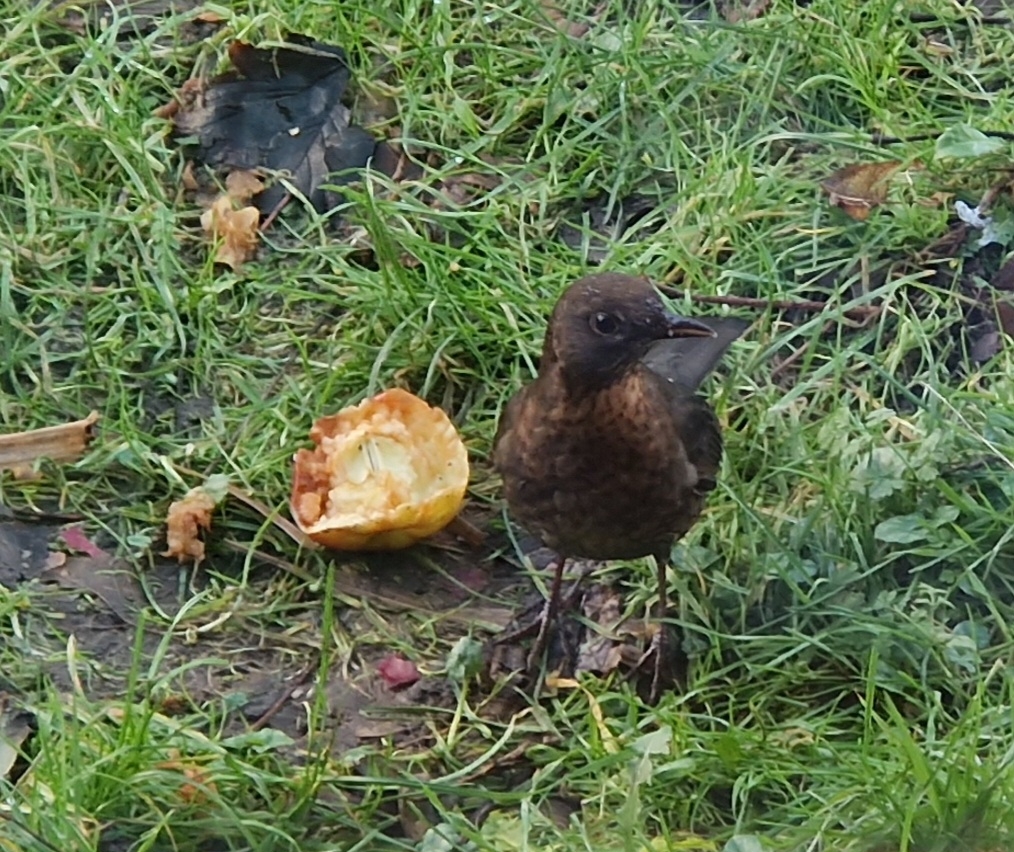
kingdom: Animalia
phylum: Chordata
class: Aves
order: Passeriformes
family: Turdidae
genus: Turdus
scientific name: Turdus merula
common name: Solsort
